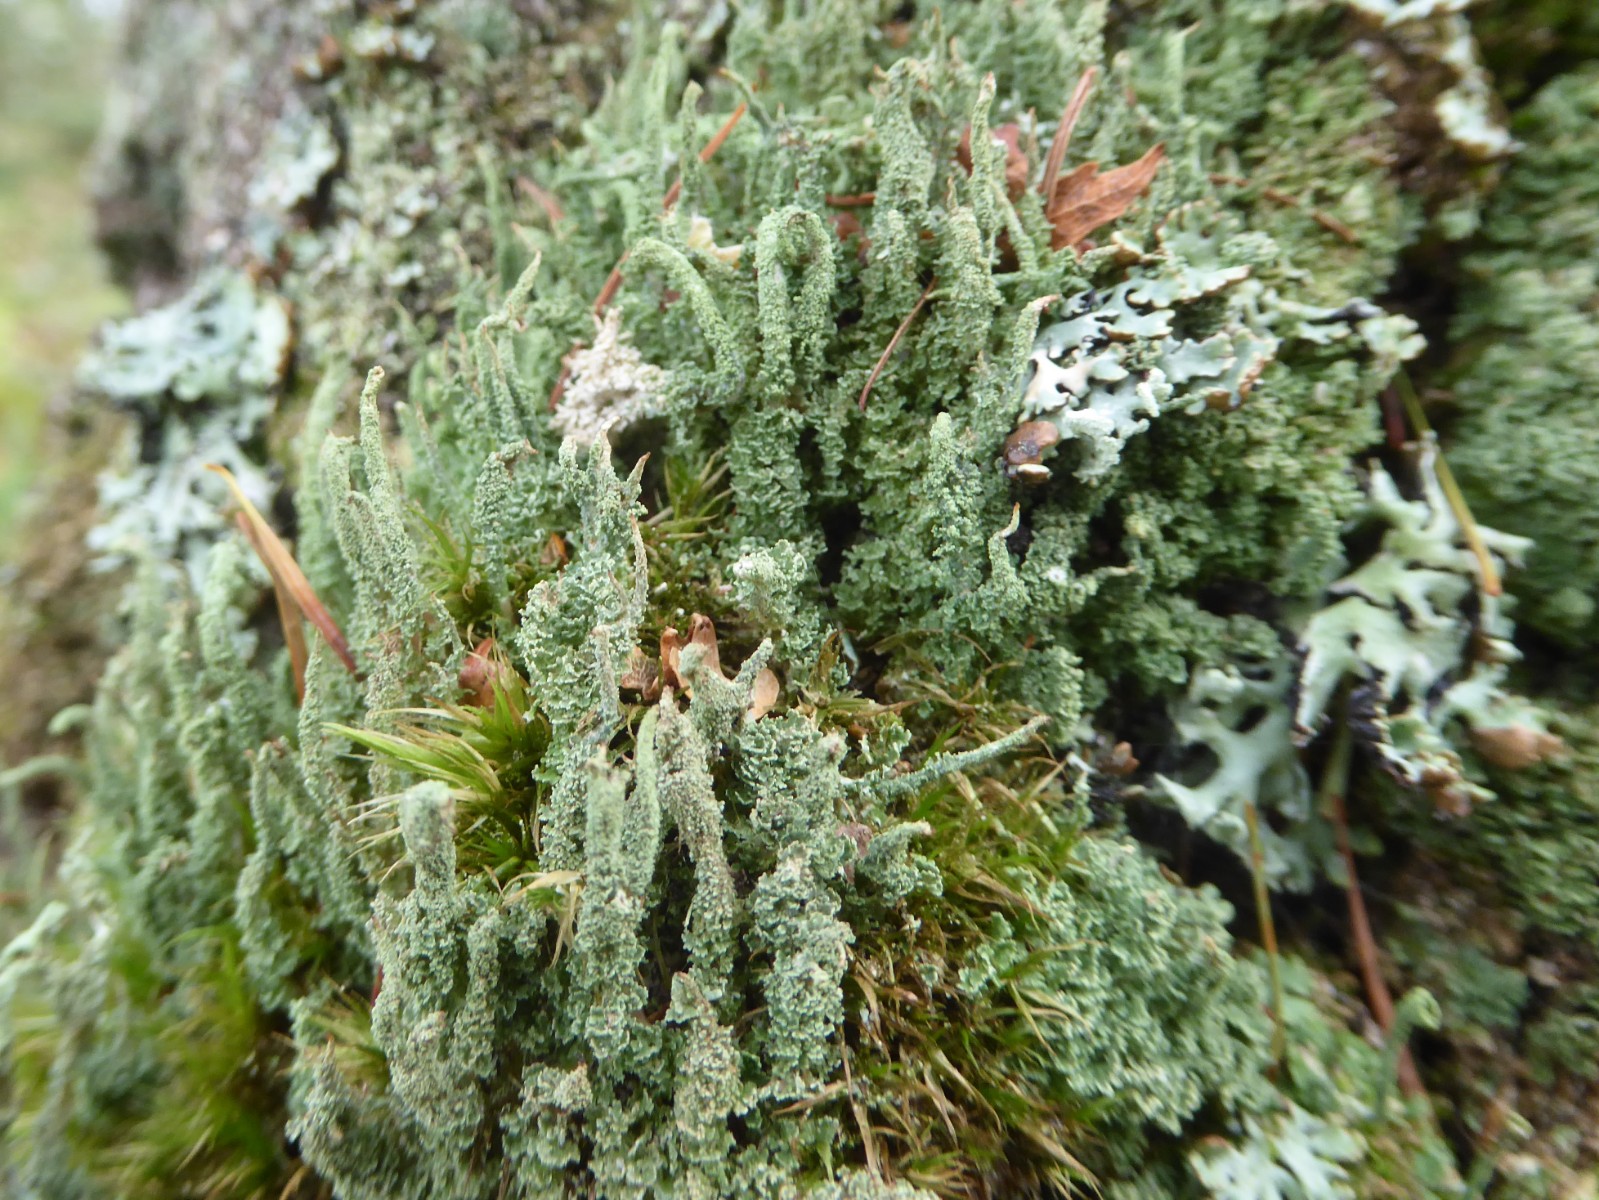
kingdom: Fungi
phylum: Ascomycota
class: Lecanoromycetes
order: Lecanorales
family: Cladoniaceae
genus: Cladonia
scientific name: Cladonia glauca
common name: grågrøn bægerlav
